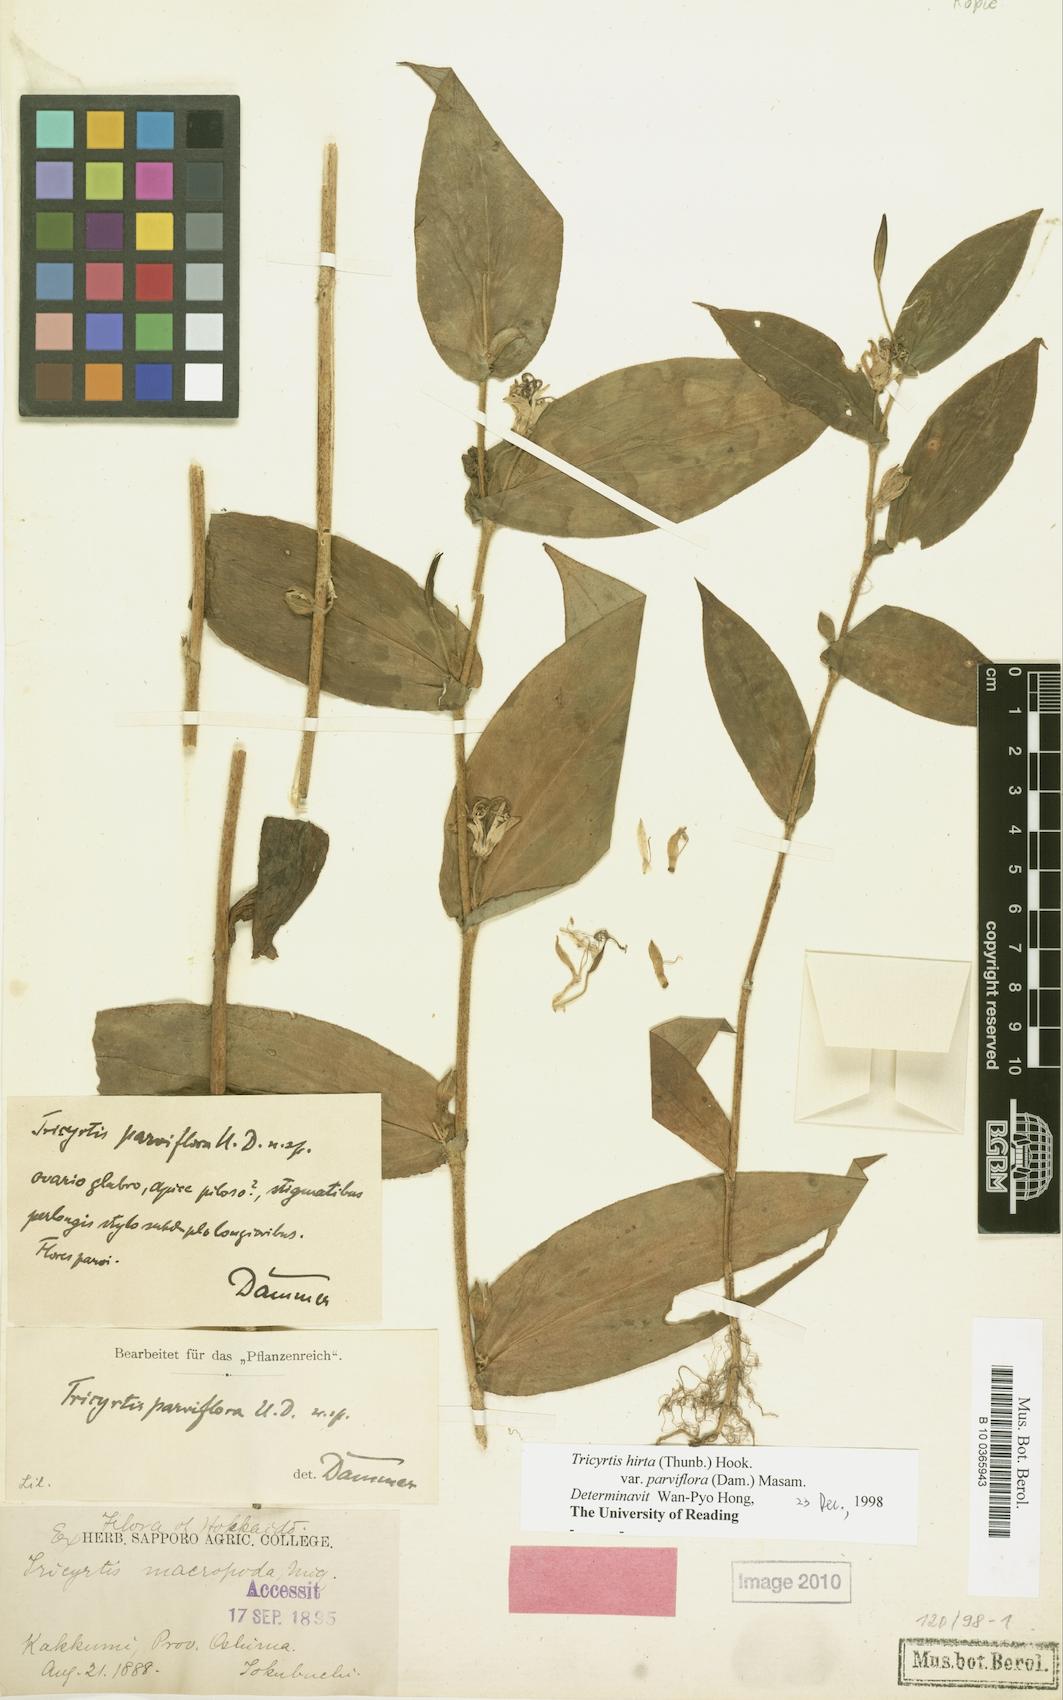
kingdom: Plantae
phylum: Tracheophyta
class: Liliopsida
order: Liliales
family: Liliaceae
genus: Tricyrtis
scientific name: Tricyrtis hirta
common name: Toadlily
